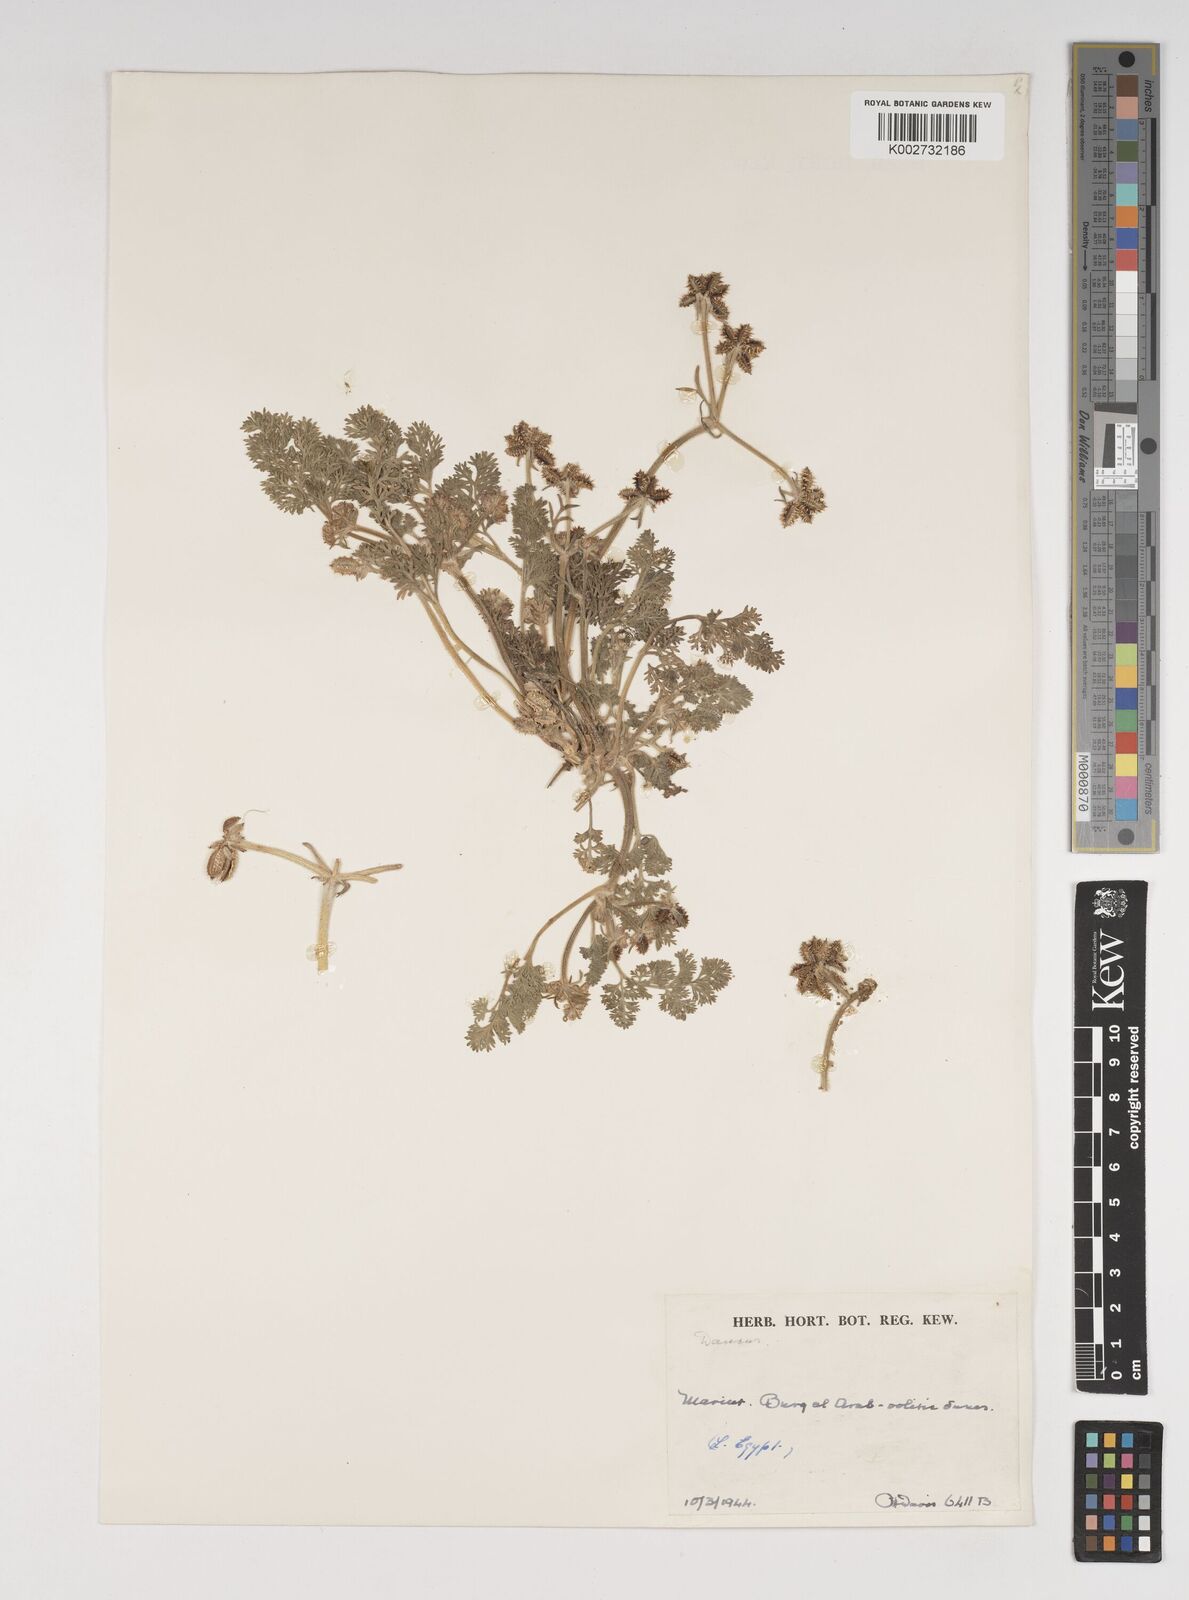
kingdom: Plantae
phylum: Tracheophyta
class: Magnoliopsida
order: Apiales
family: Apiaceae
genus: Daucus
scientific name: Daucus pumilus
